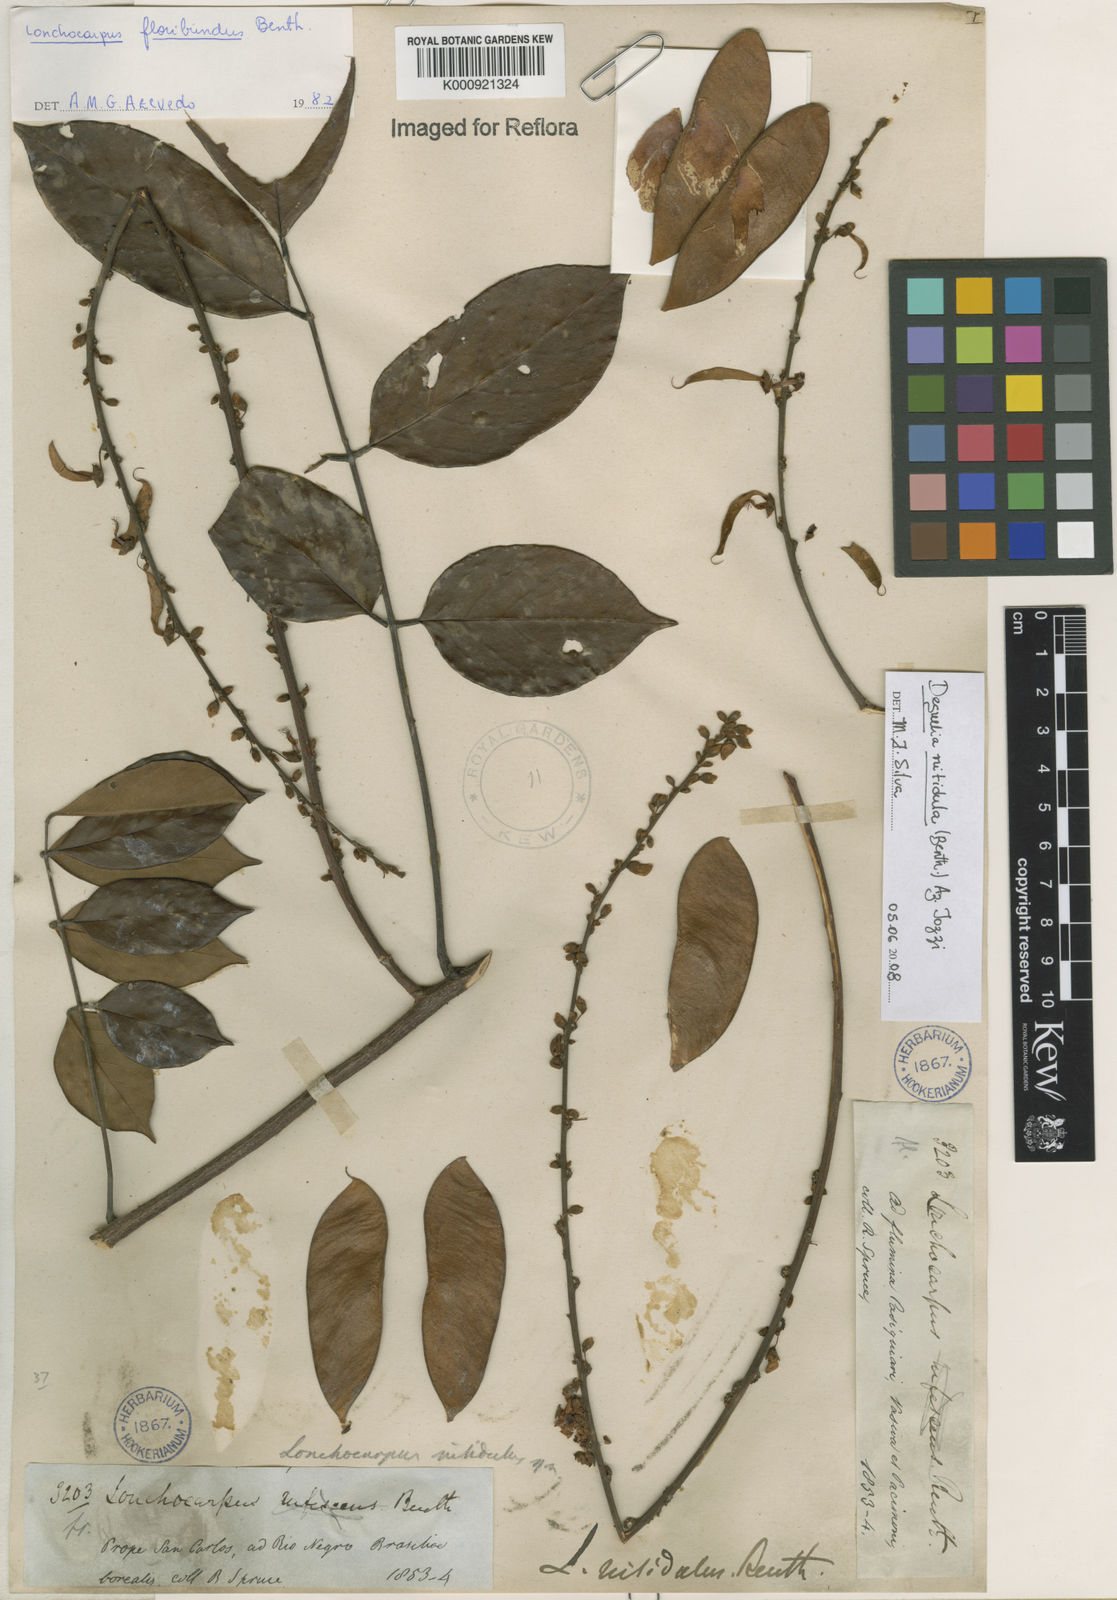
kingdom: Plantae
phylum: Tracheophyta
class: Magnoliopsida
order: Fabales
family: Fabaceae
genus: Deguelia
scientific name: Deguelia nitidula
